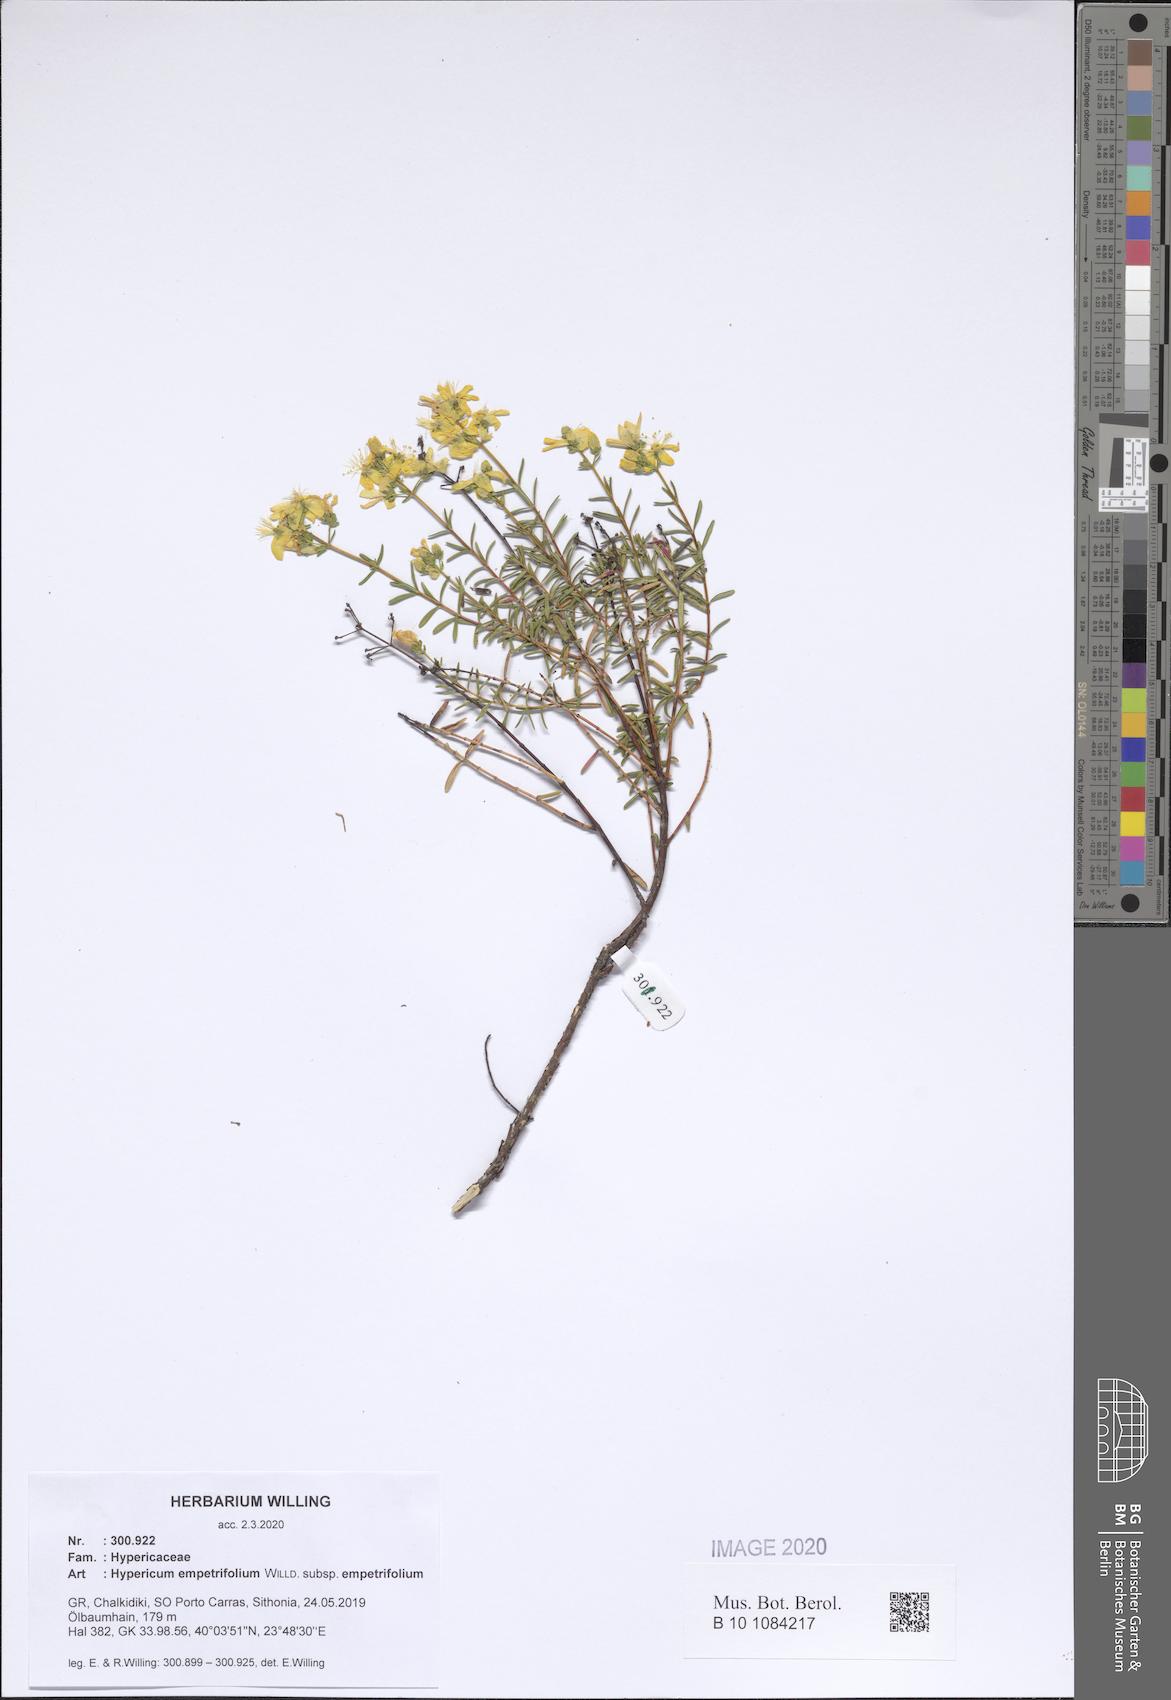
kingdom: Plantae
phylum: Tracheophyta
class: Magnoliopsida
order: Malpighiales
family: Hypericaceae
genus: Hypericum
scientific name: Hypericum empetrifolium
